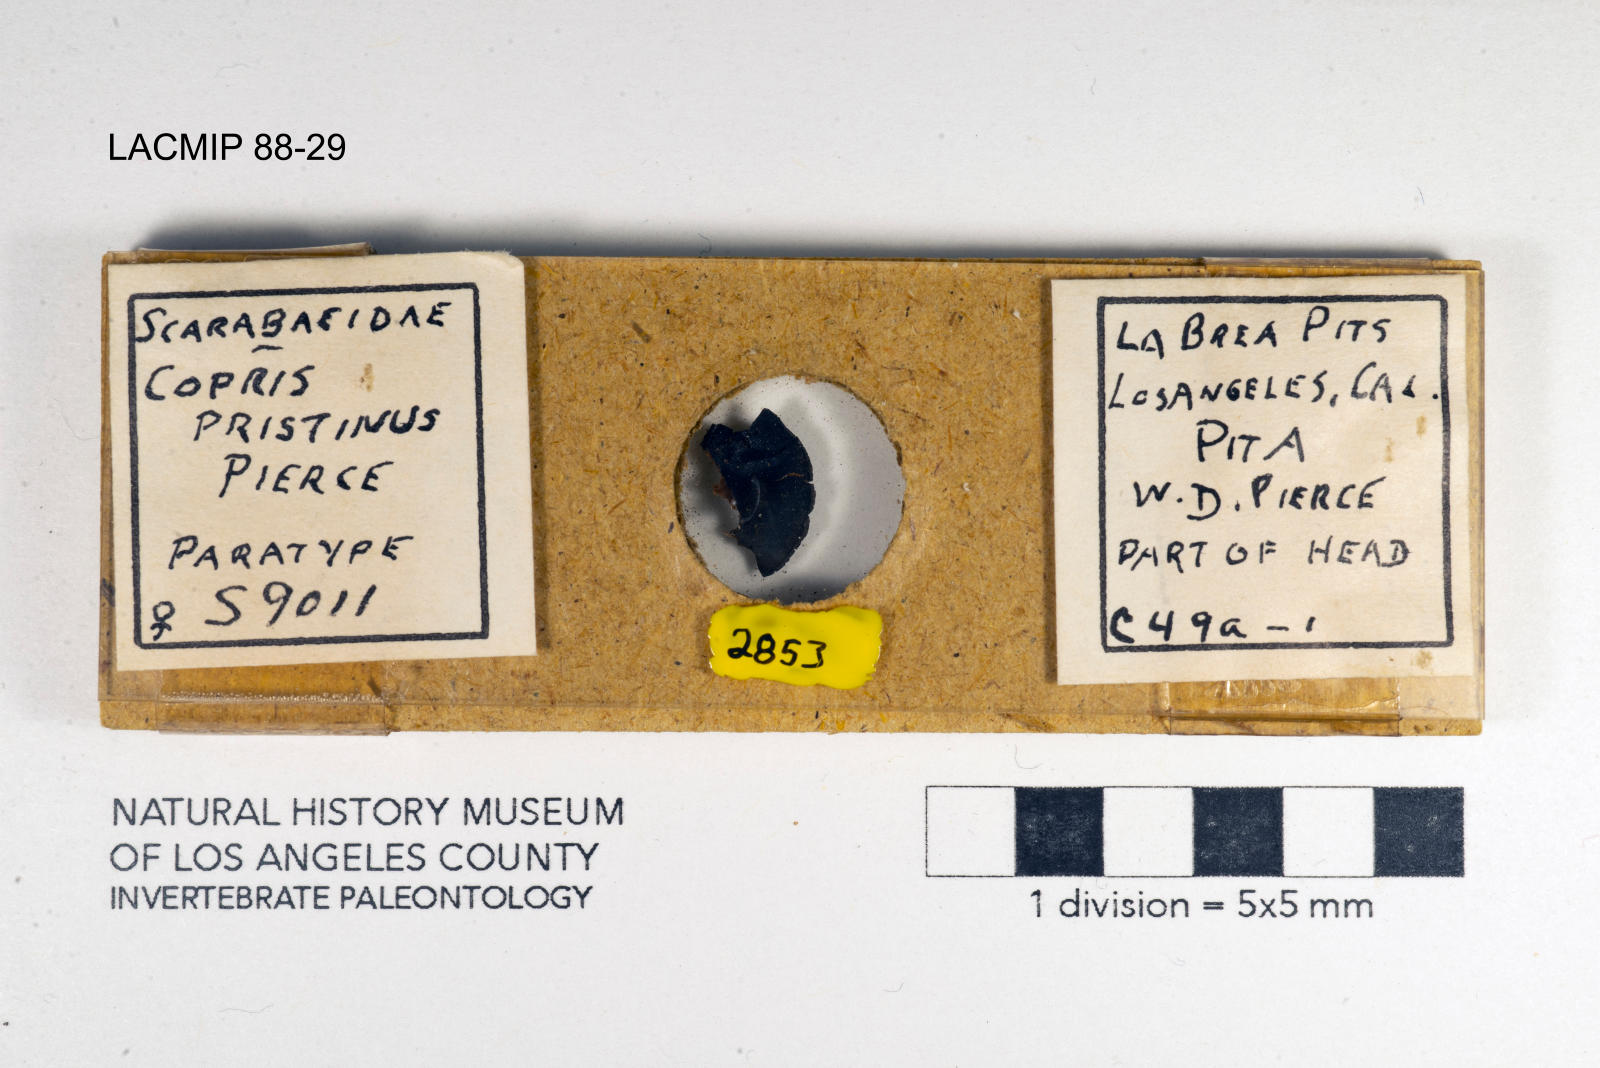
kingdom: Animalia
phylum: Arthropoda
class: Insecta
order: Coleoptera
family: Scarabaeidae
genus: Copris
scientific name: Copris pristinus
